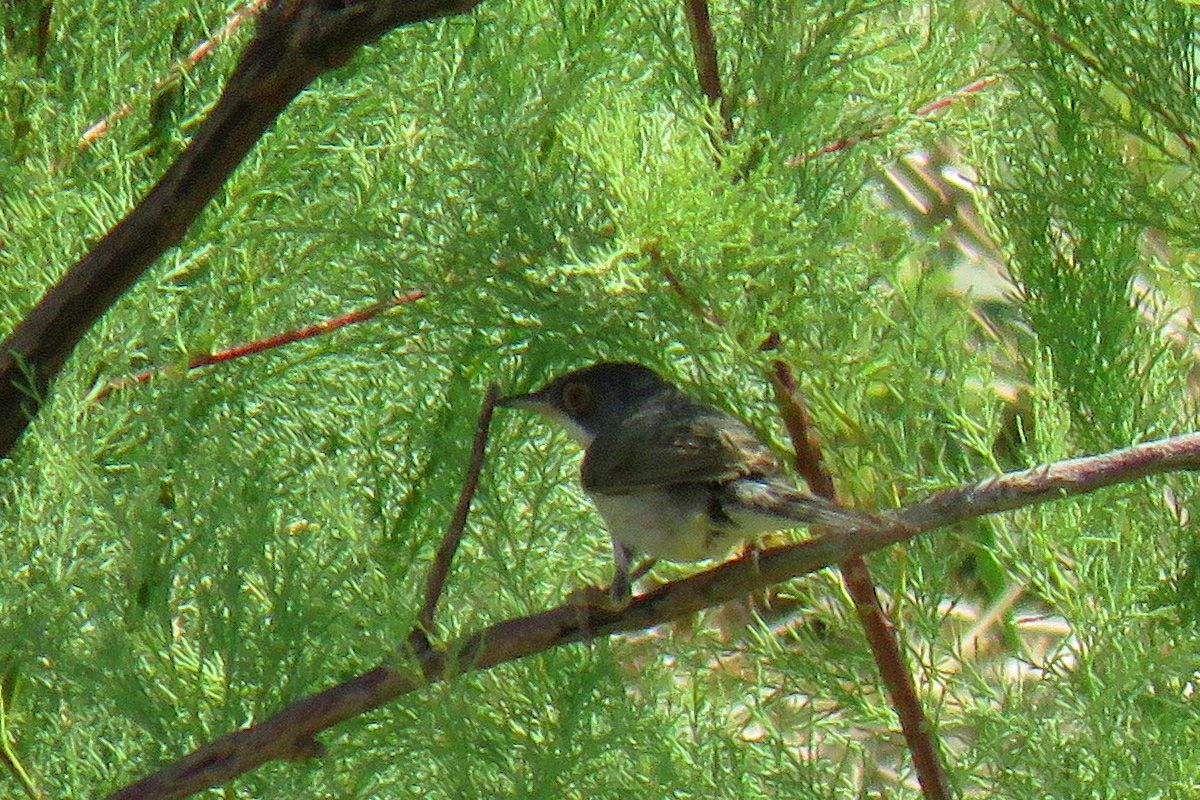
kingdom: Animalia
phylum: Chordata
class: Aves
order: Passeriformes
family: Sylviidae
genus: Sylvia
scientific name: Sylvia mystacea
